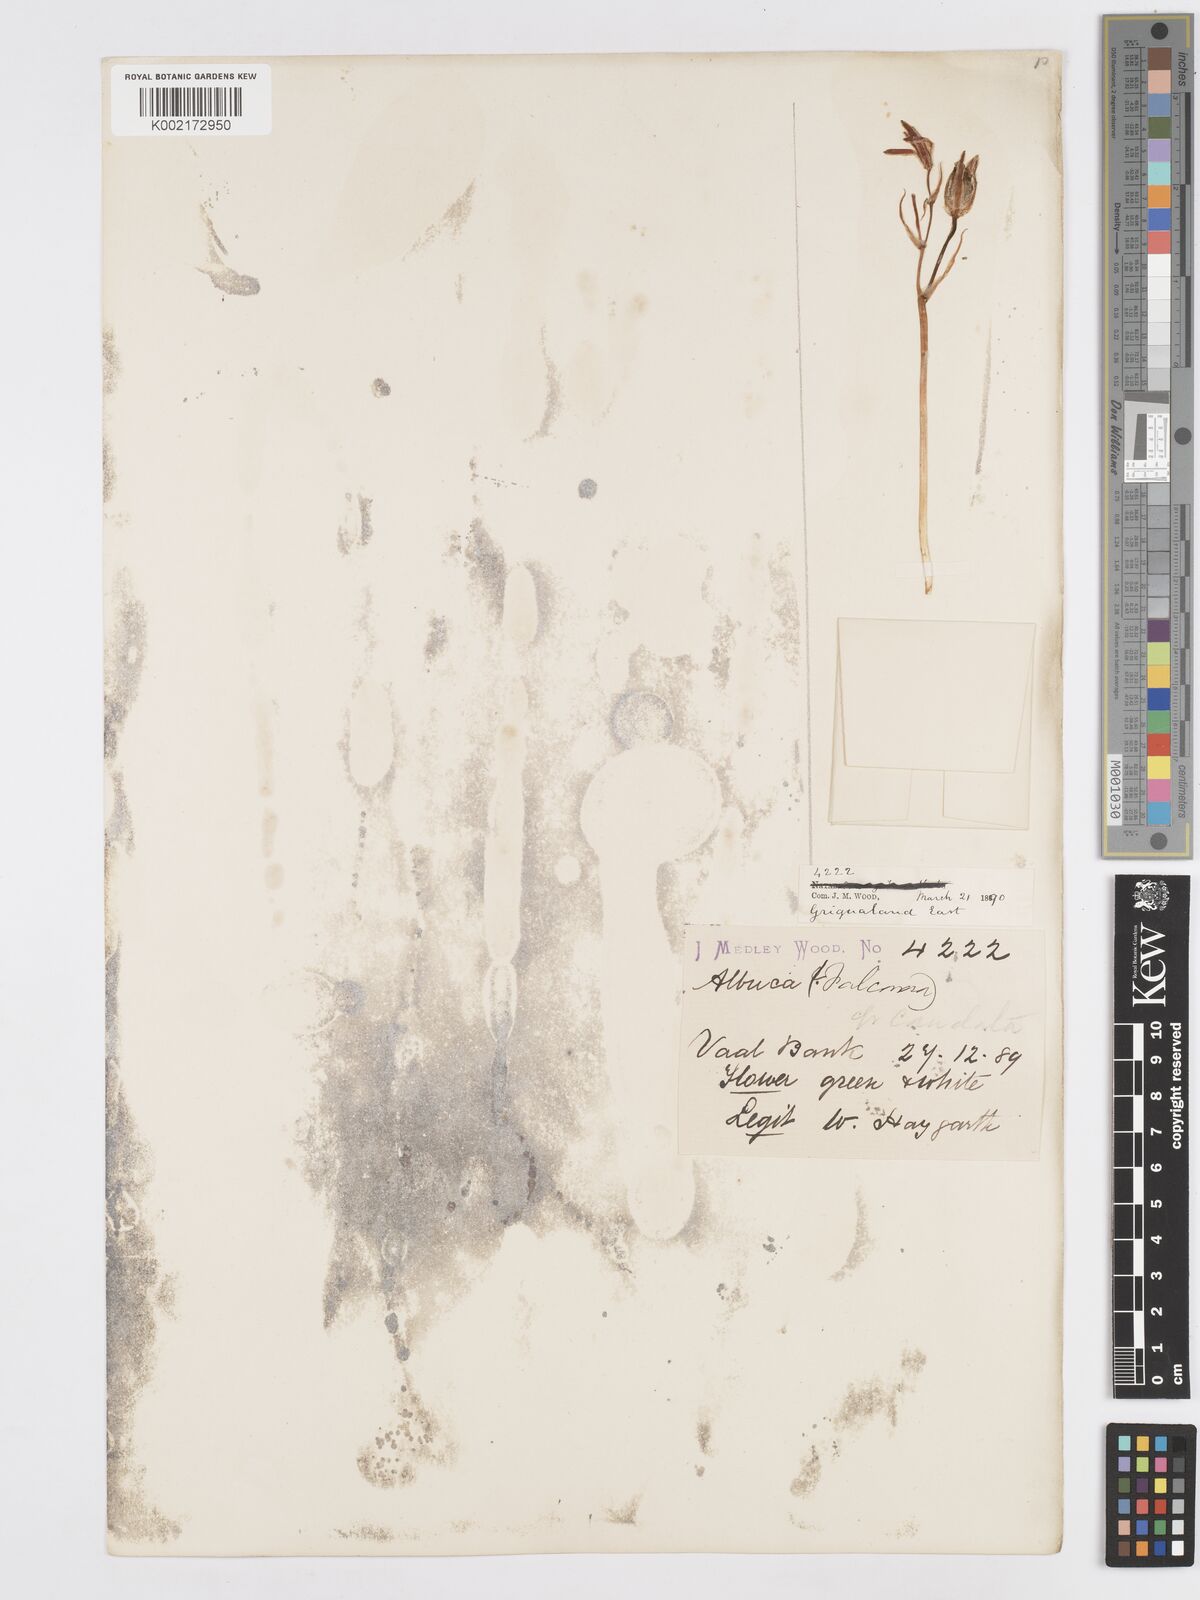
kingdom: Plantae
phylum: Tracheophyta
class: Liliopsida
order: Asparagales
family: Asparagaceae
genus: Albuca
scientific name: Albuca setosa
